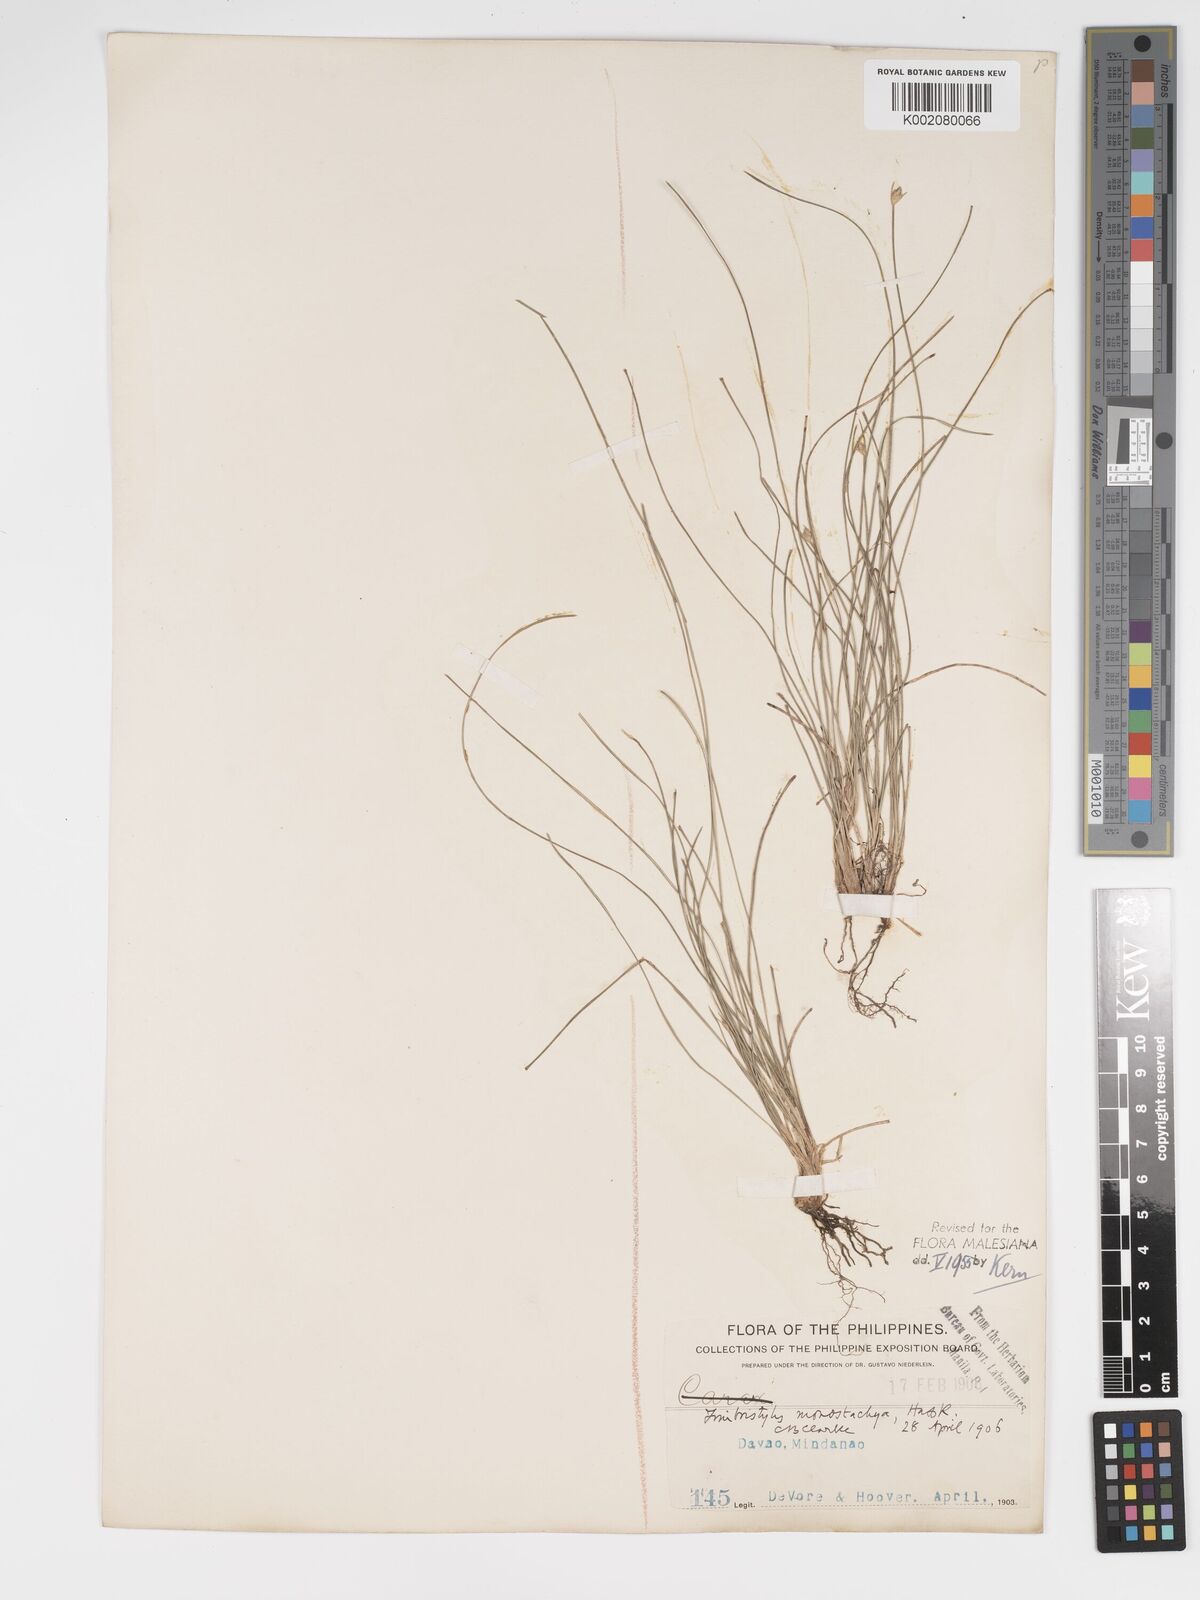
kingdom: Plantae
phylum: Tracheophyta
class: Liliopsida
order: Poales
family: Cyperaceae
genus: Abildgaardia
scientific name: Abildgaardia ovata
